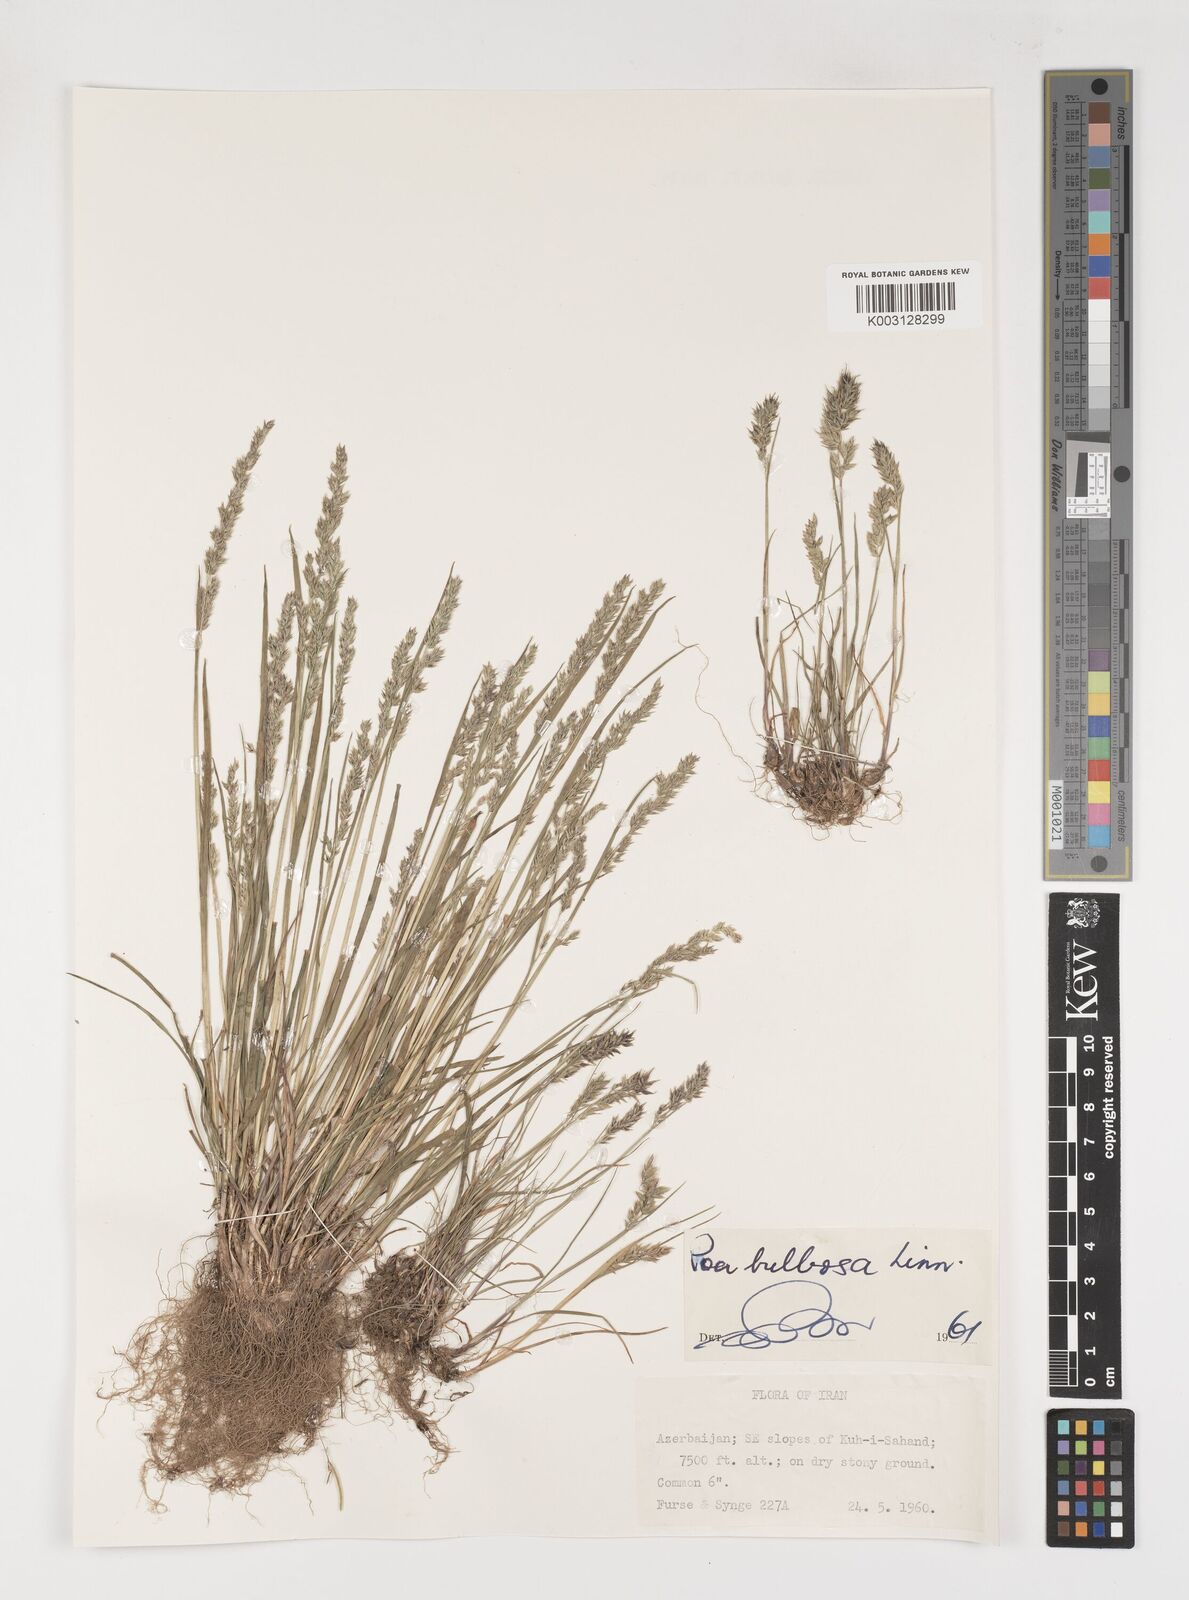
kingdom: Plantae
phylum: Tracheophyta
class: Liliopsida
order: Poales
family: Poaceae
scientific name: Poaceae
